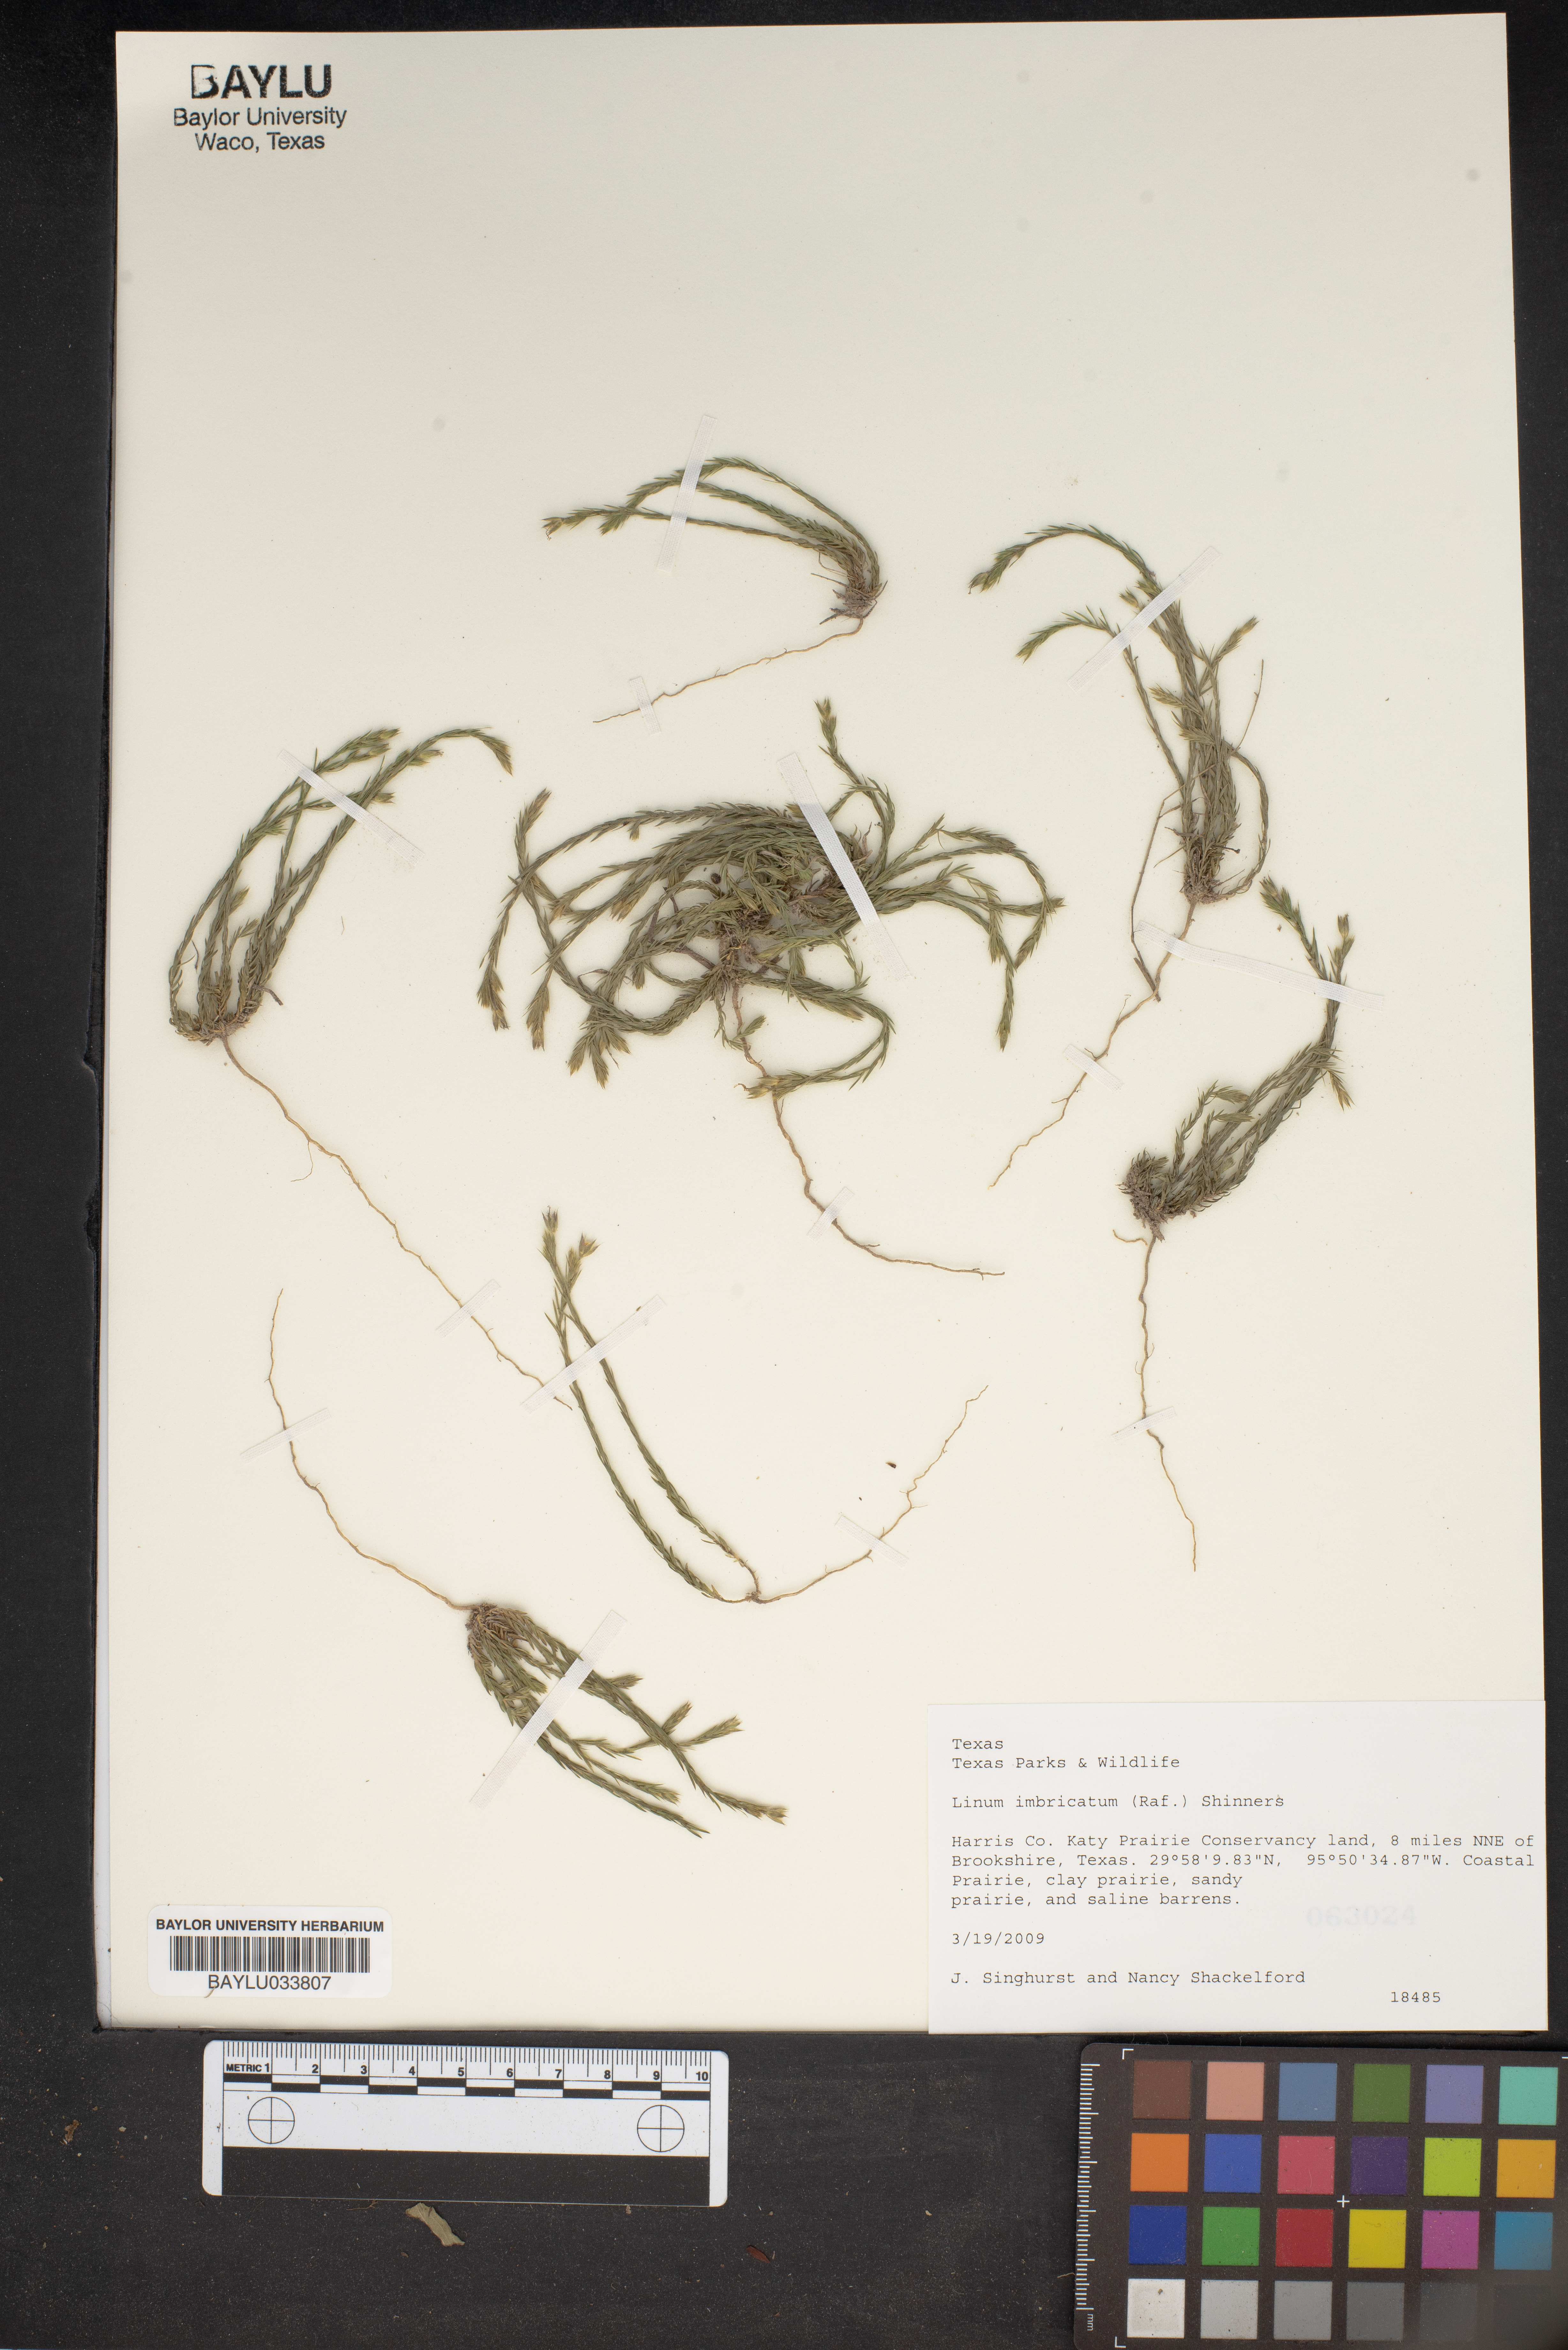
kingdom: Plantae
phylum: Tracheophyta
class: Magnoliopsida
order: Malpighiales
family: Linaceae
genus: Linum
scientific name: Linum imbricatum
